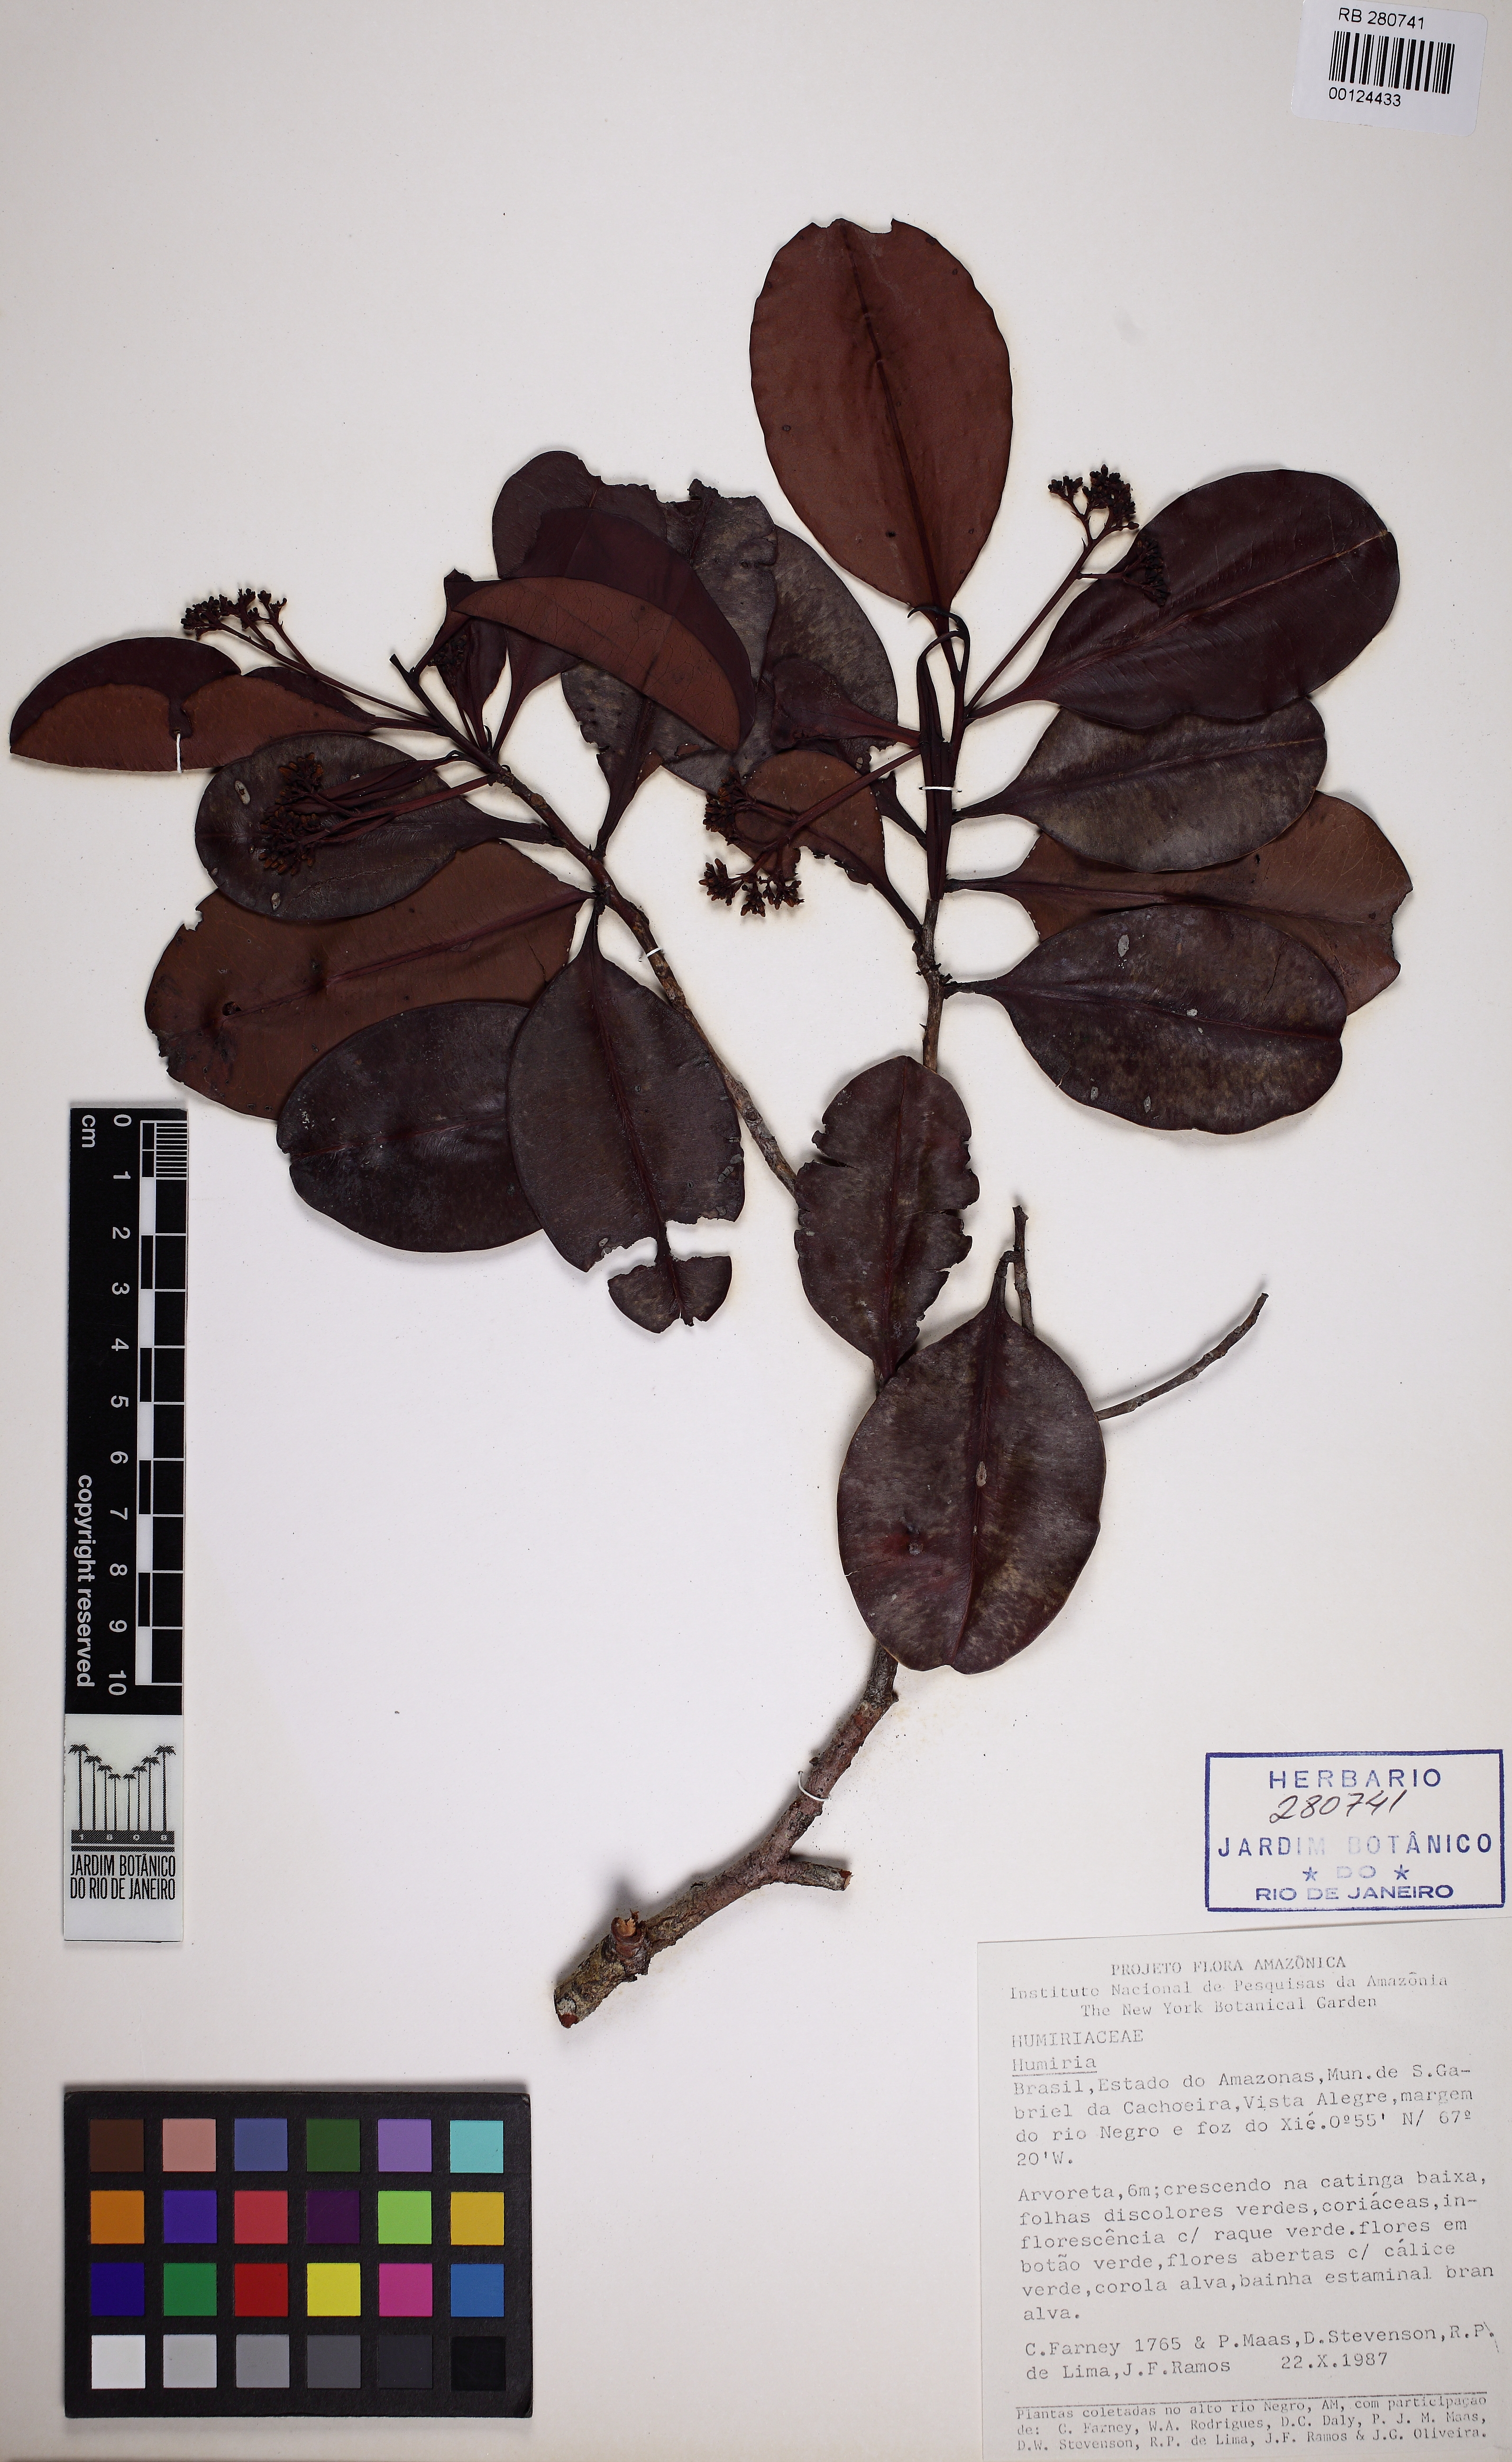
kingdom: Plantae
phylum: Tracheophyta
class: Magnoliopsida
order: Malpighiales
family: Humiriaceae
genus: Humiria
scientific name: Humiria balsamifera
